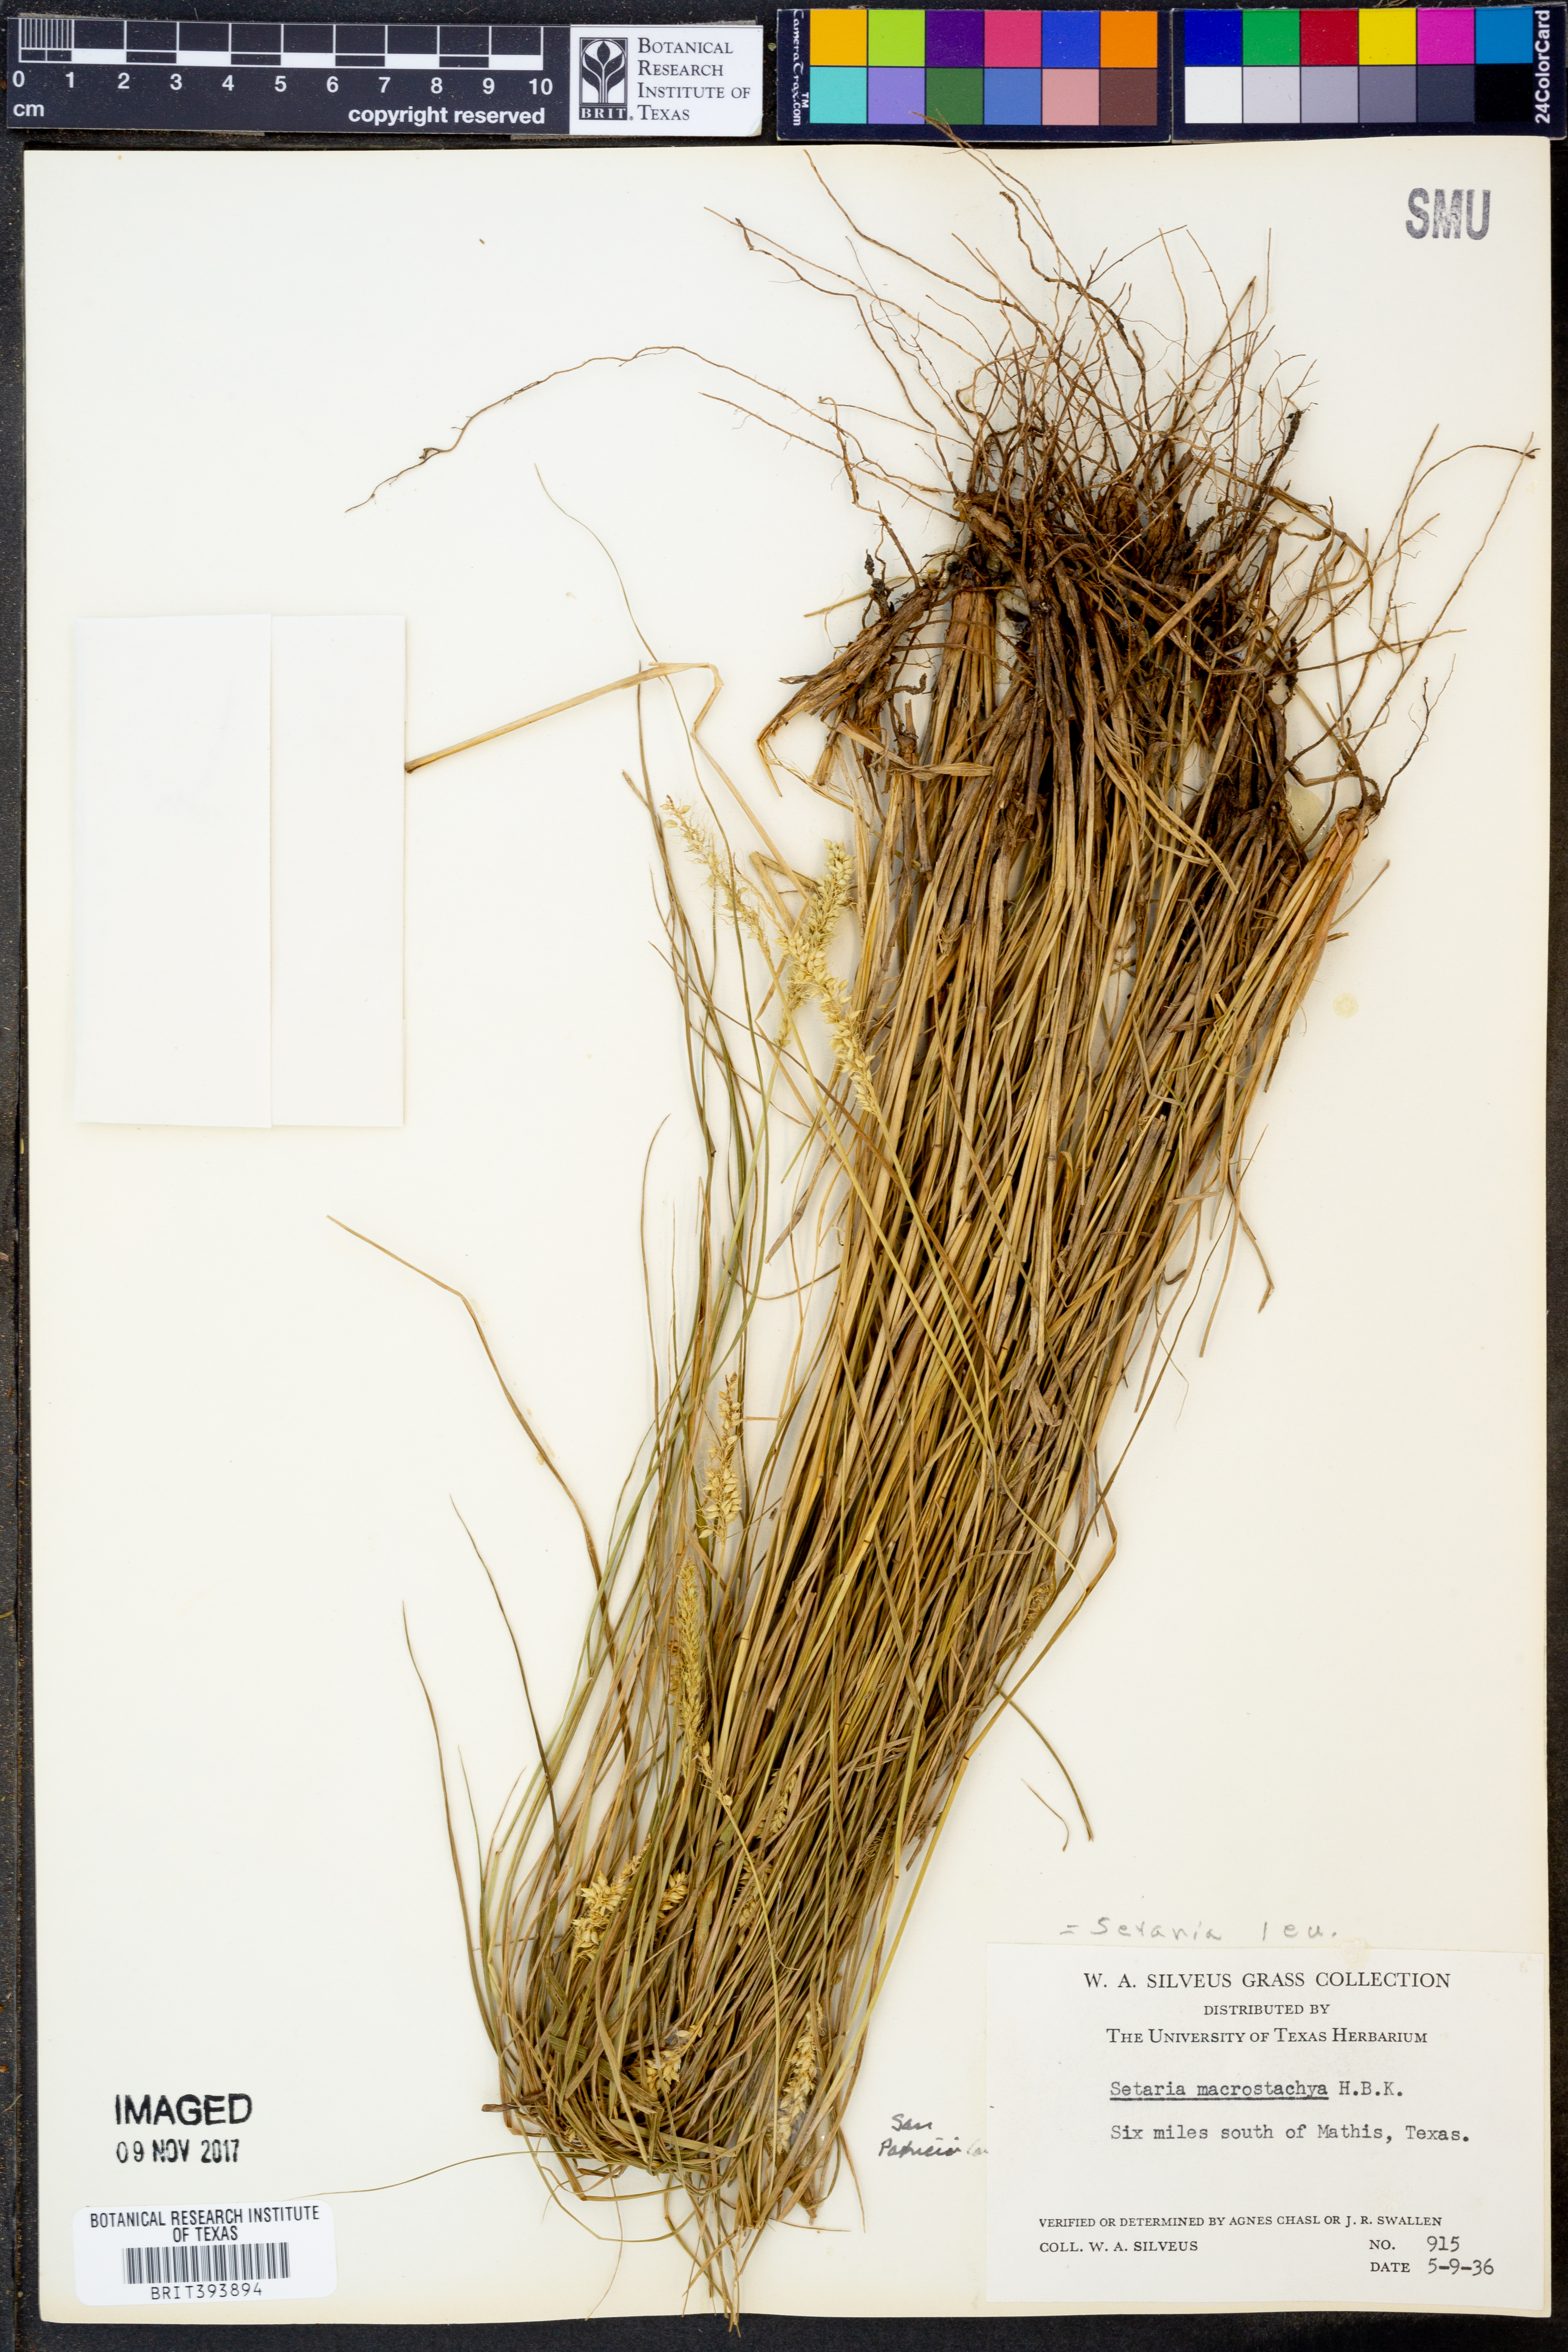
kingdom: Plantae
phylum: Tracheophyta
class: Liliopsida
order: Poales
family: Poaceae
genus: Setaria
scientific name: Setaria leucopila
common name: Plains bristle grass
